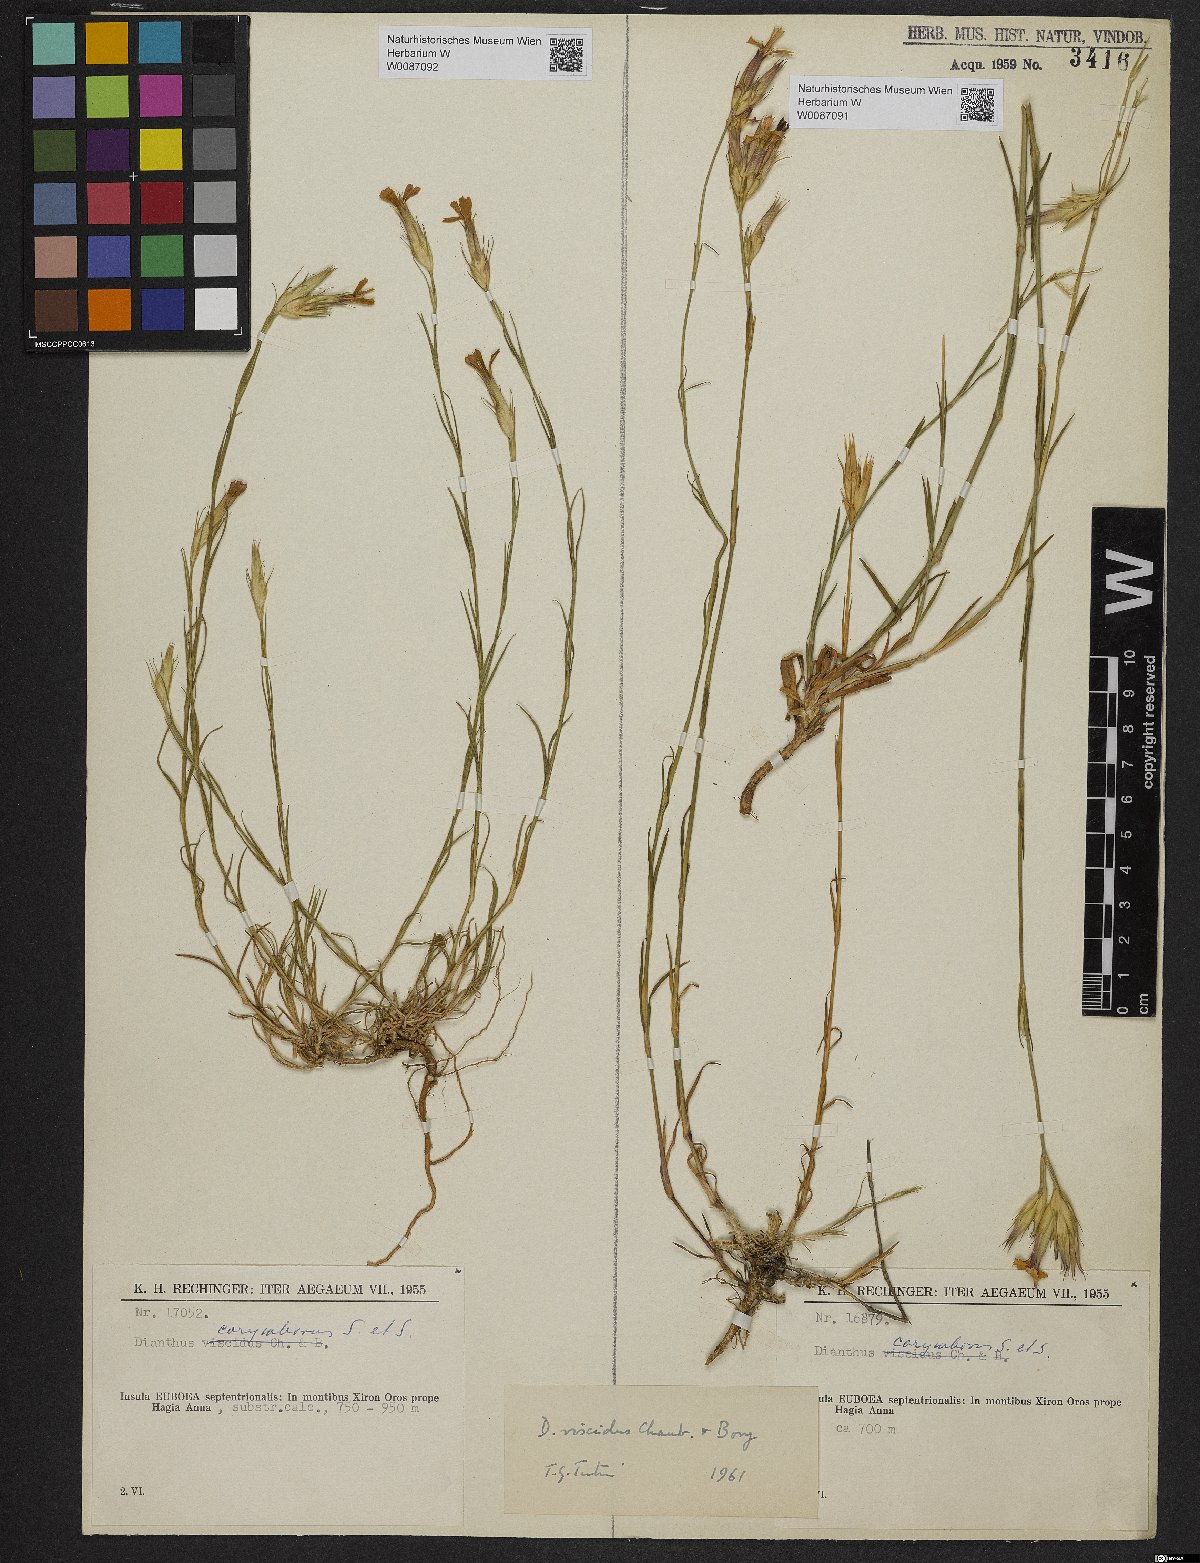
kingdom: Plantae
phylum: Tracheophyta
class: Magnoliopsida
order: Caryophyllales
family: Caryophyllaceae
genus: Dianthus
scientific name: Dianthus viscidus
